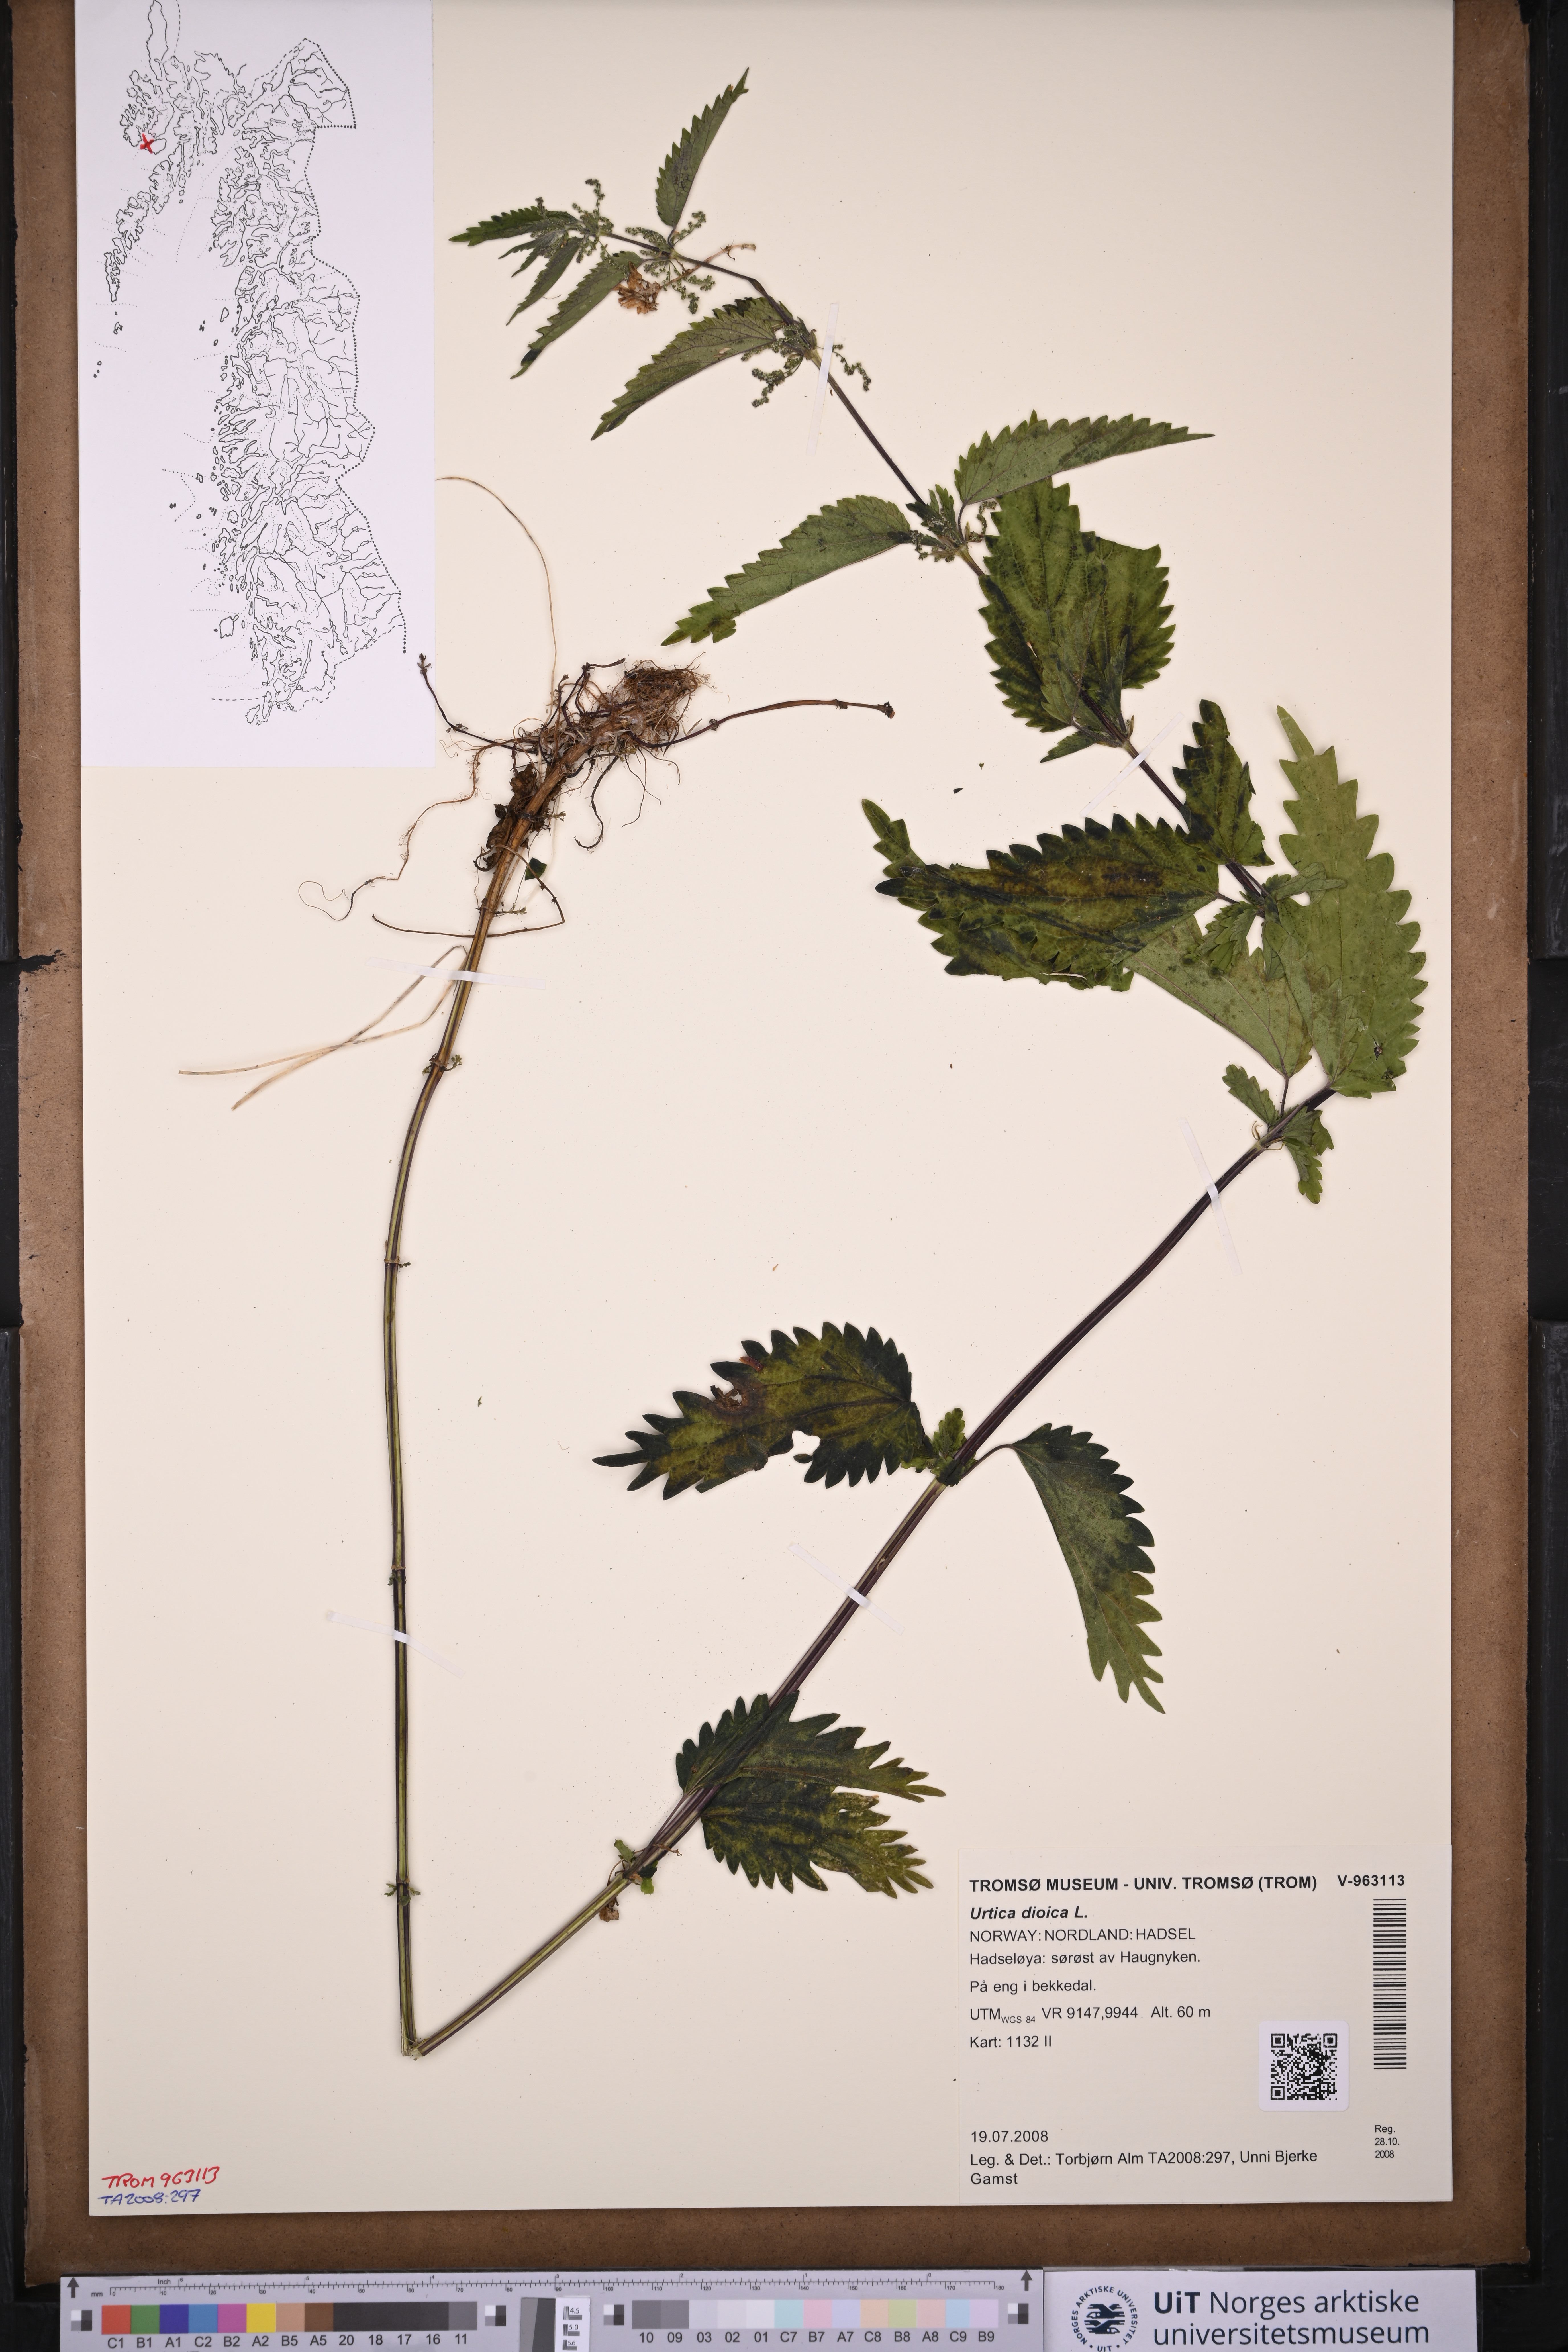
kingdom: Plantae
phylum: Tracheophyta
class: Magnoliopsida
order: Rosales
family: Urticaceae
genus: Urtica
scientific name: Urtica dioica
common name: Common nettle
